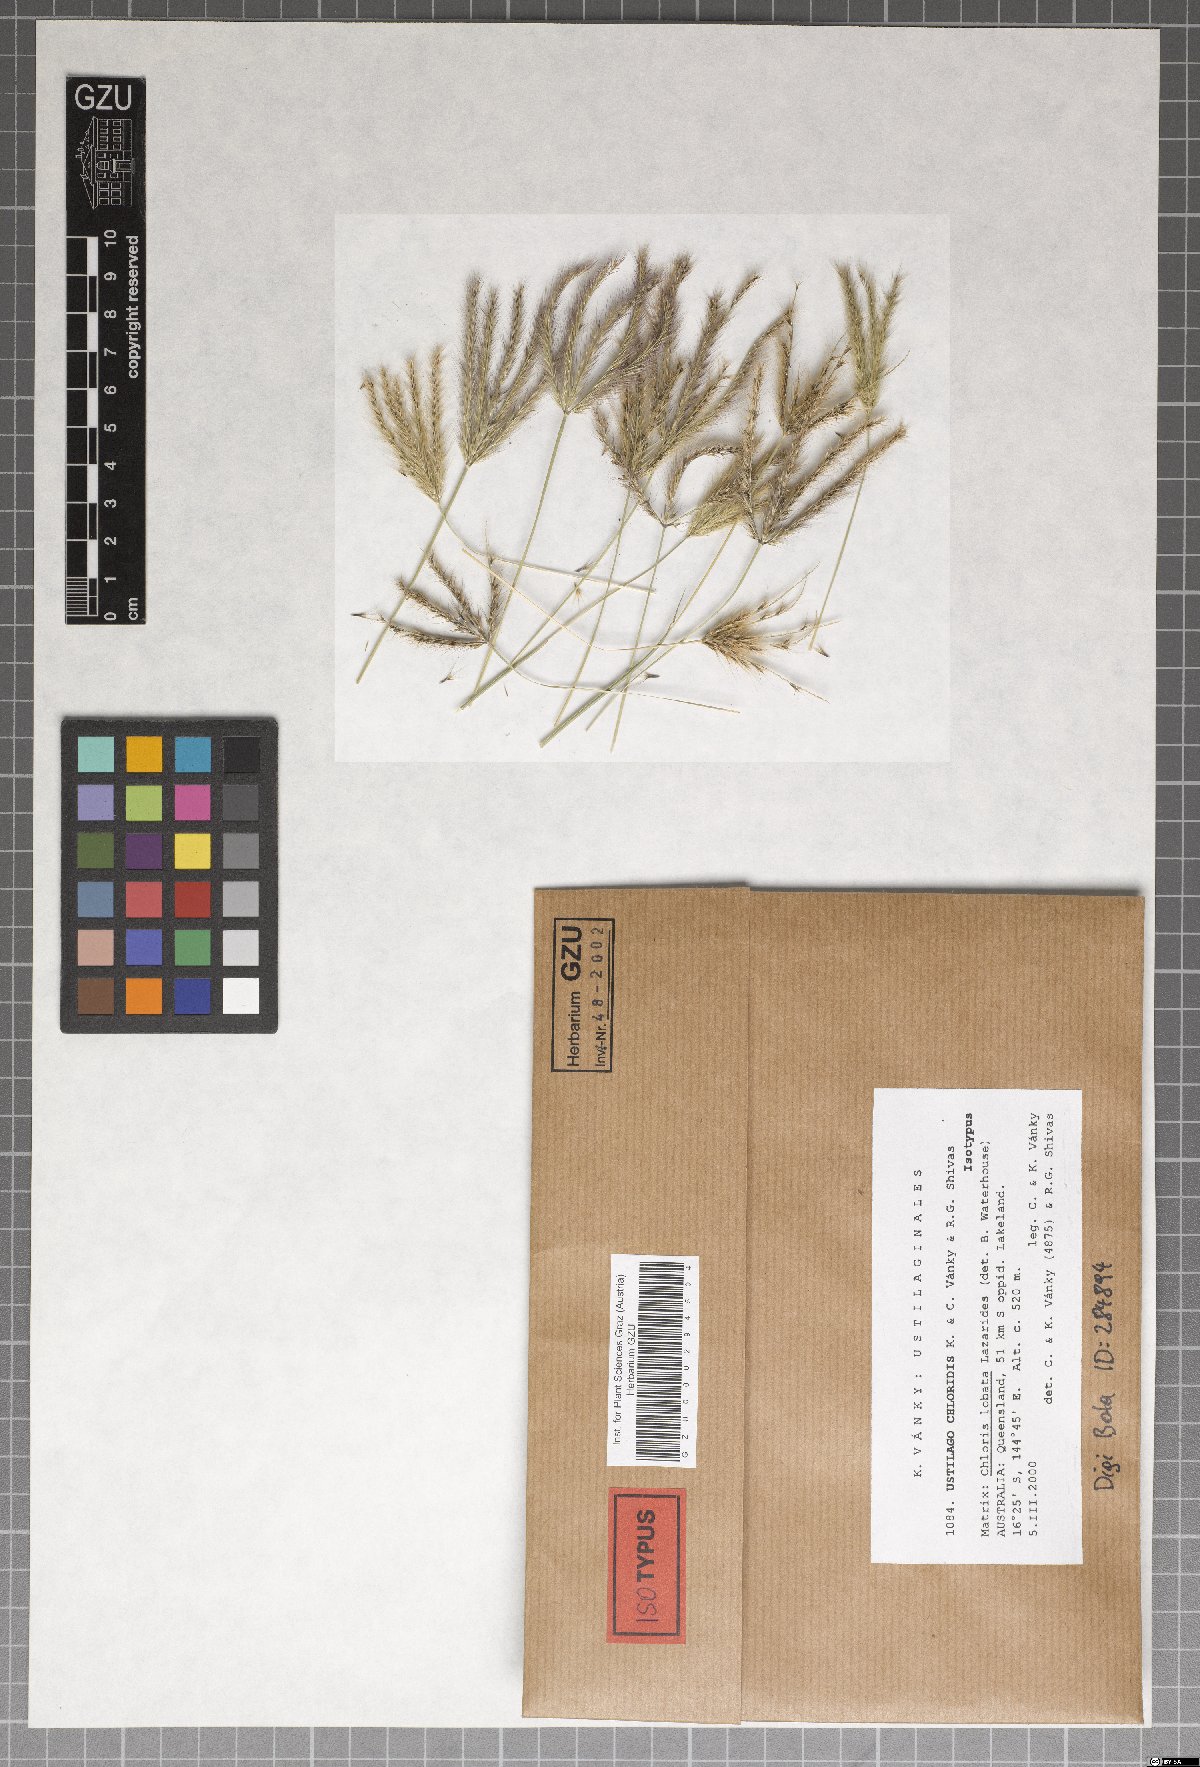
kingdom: Fungi
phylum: Basidiomycota
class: Ustilaginomycetes
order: Ustilaginales
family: Ustilaginaceae
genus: Ustilago
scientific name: Ustilago chloridis
